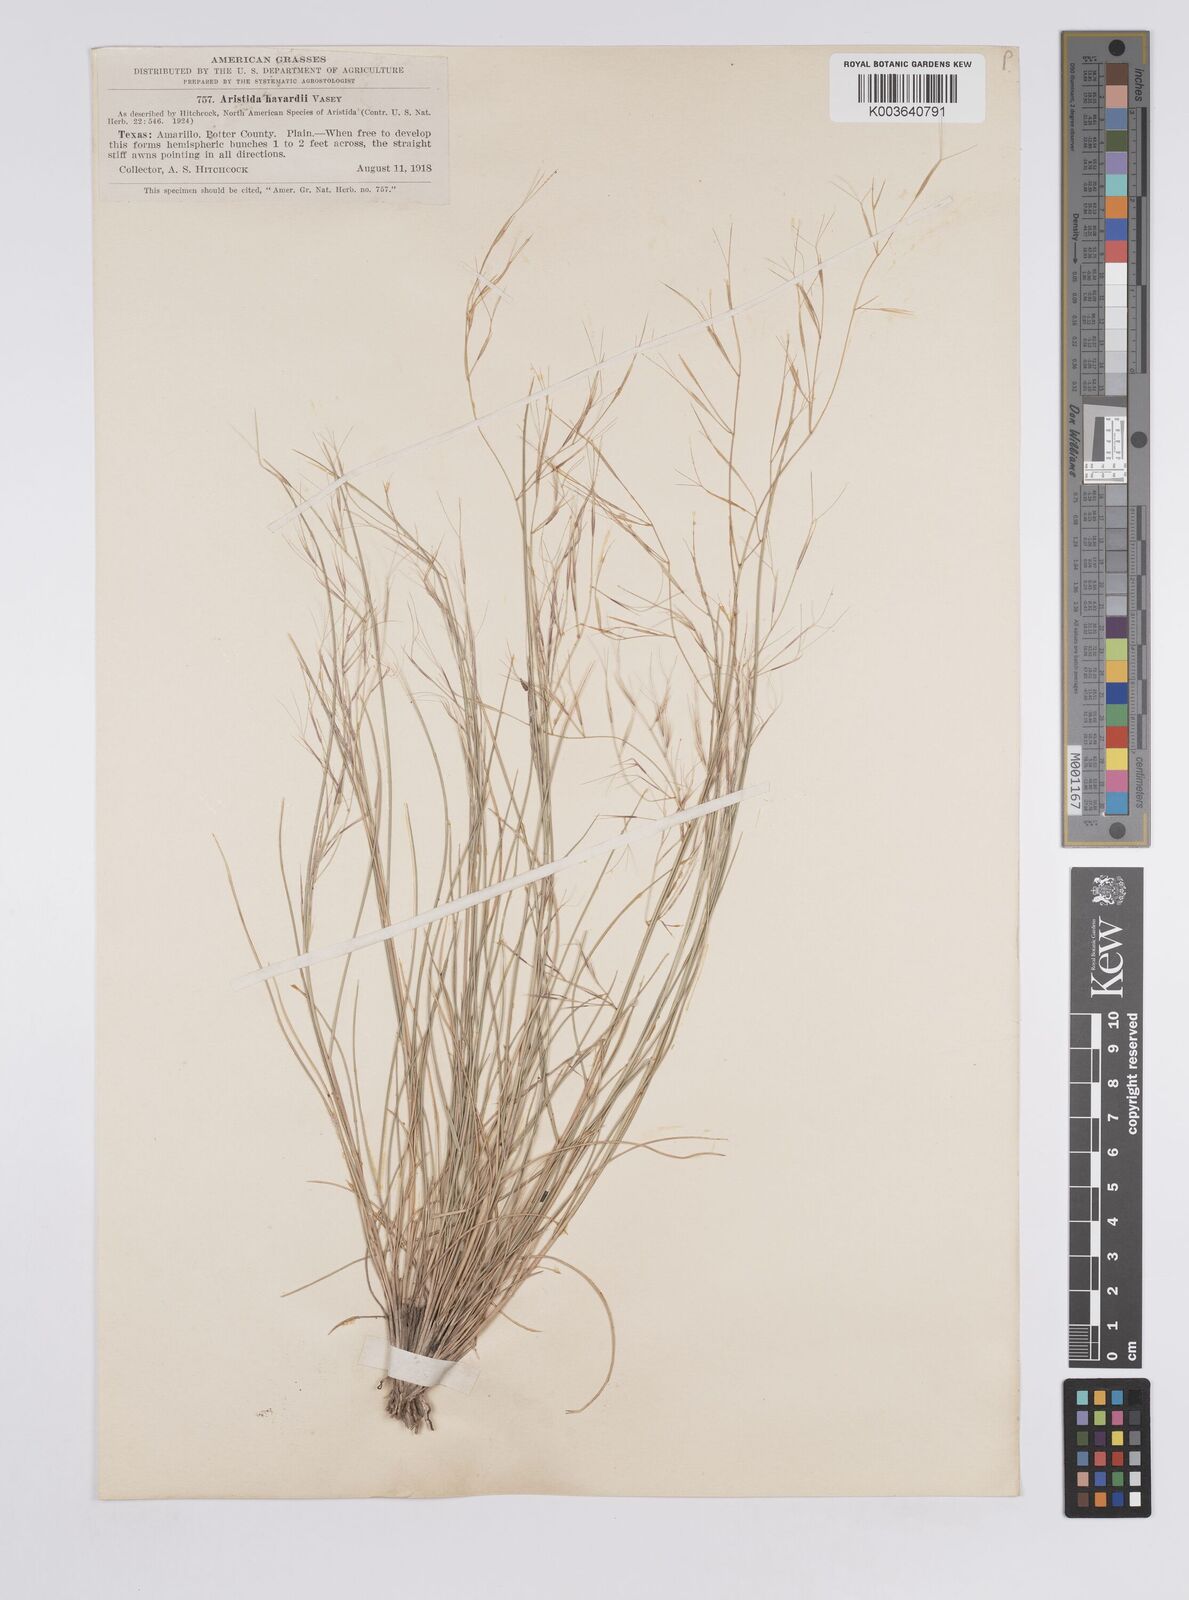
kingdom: Plantae
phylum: Tracheophyta
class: Liliopsida
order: Poales
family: Poaceae
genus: Aristida
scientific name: Aristida havardii
